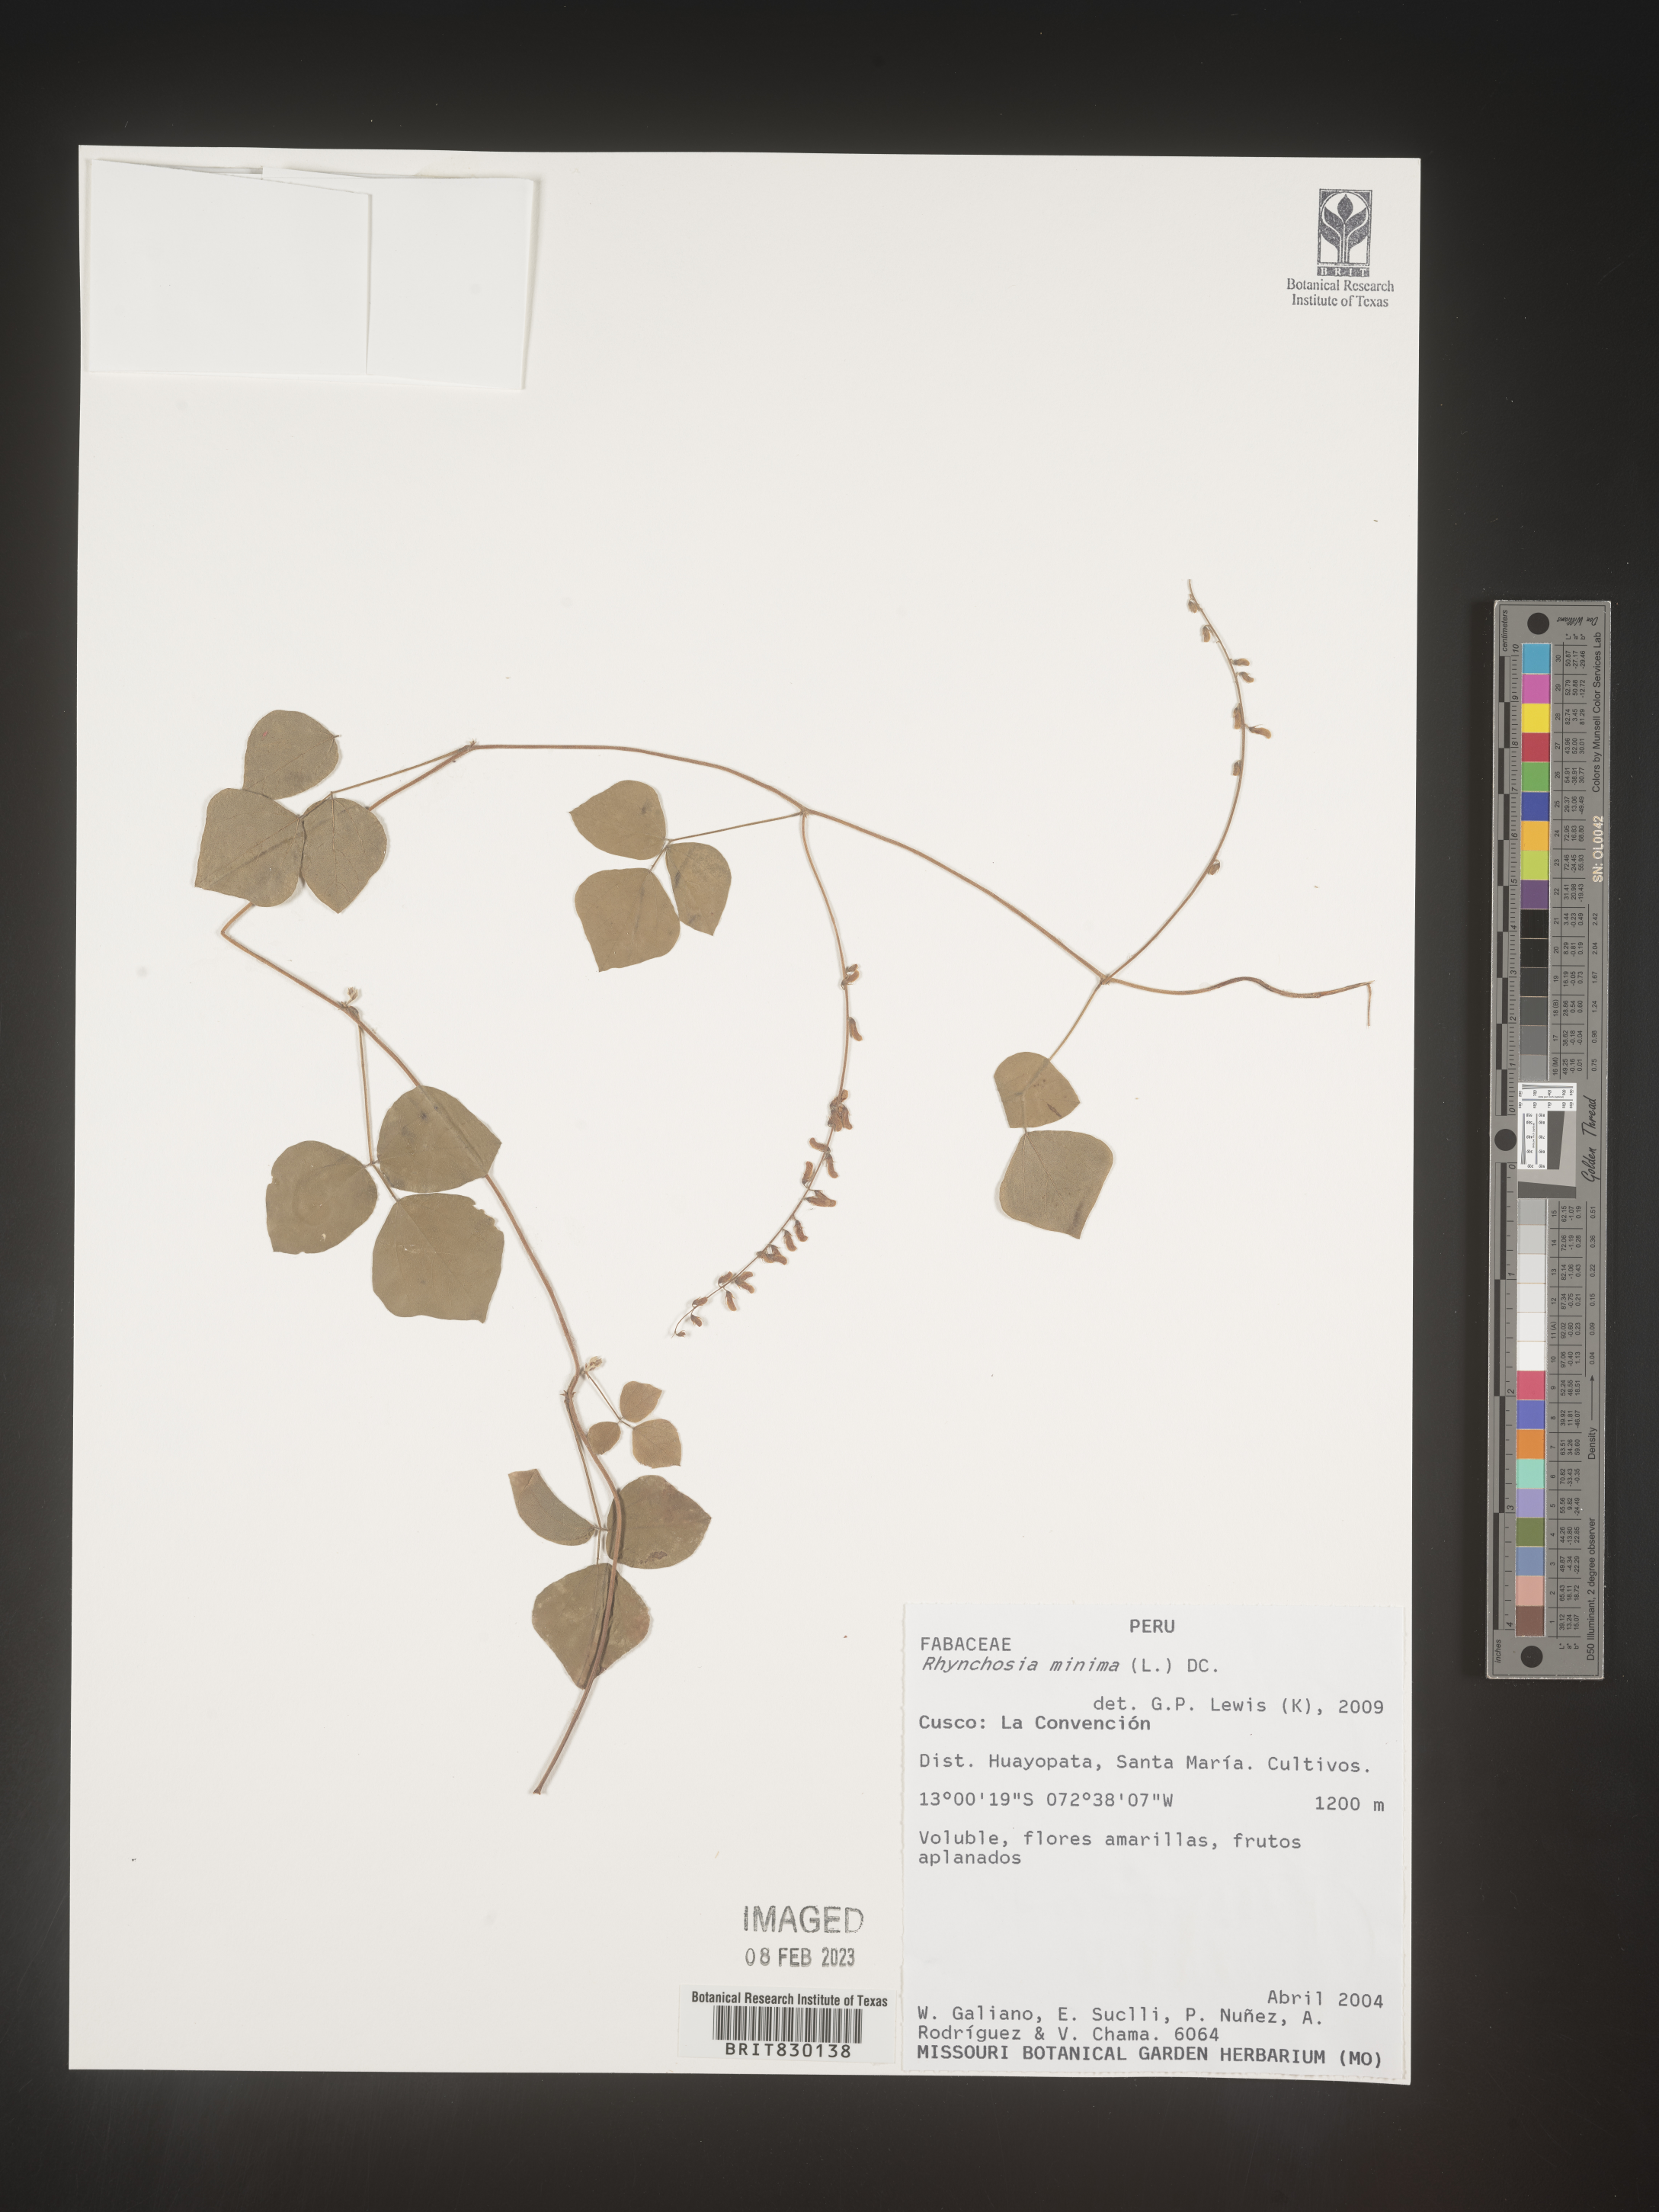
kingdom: Plantae
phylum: Tracheophyta
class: Magnoliopsida
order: Fabales
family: Fabaceae
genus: Rhynchosia
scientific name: Rhynchosia
